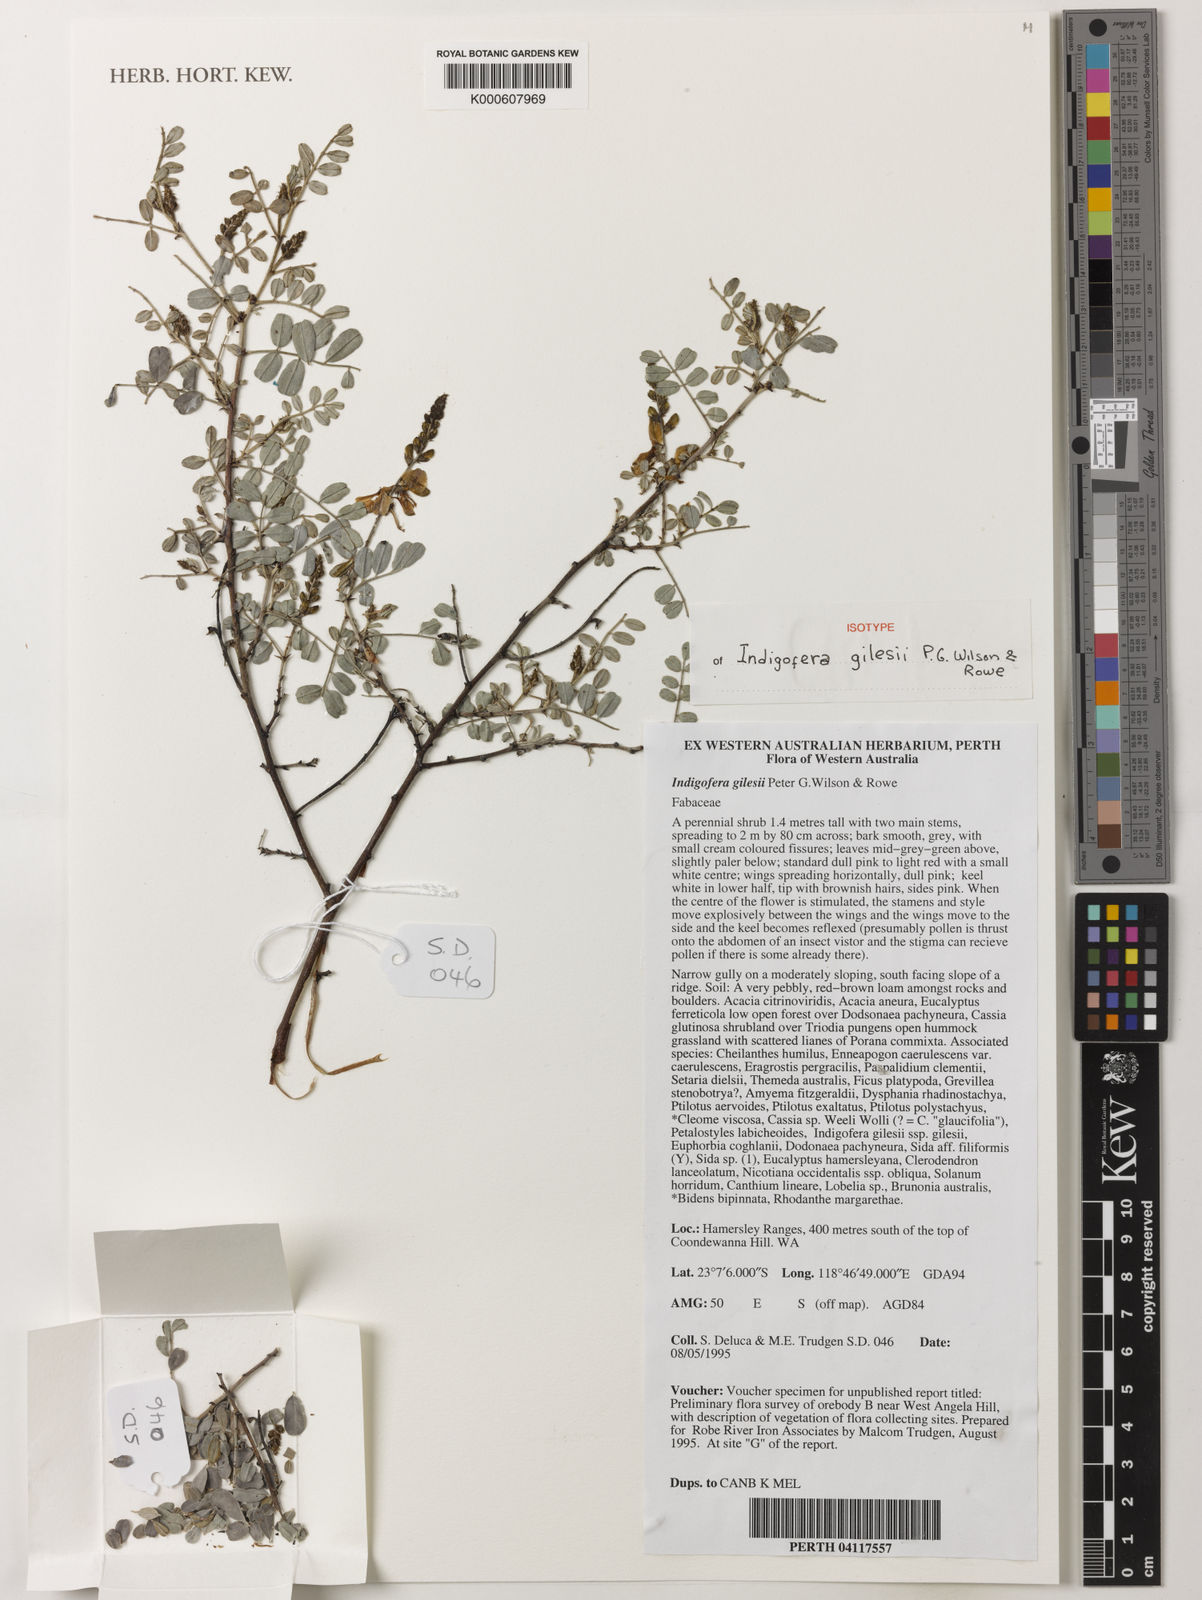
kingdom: Plantae
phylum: Tracheophyta
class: Magnoliopsida
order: Fabales
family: Fabaceae
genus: Indigofera
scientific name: Indigofera
